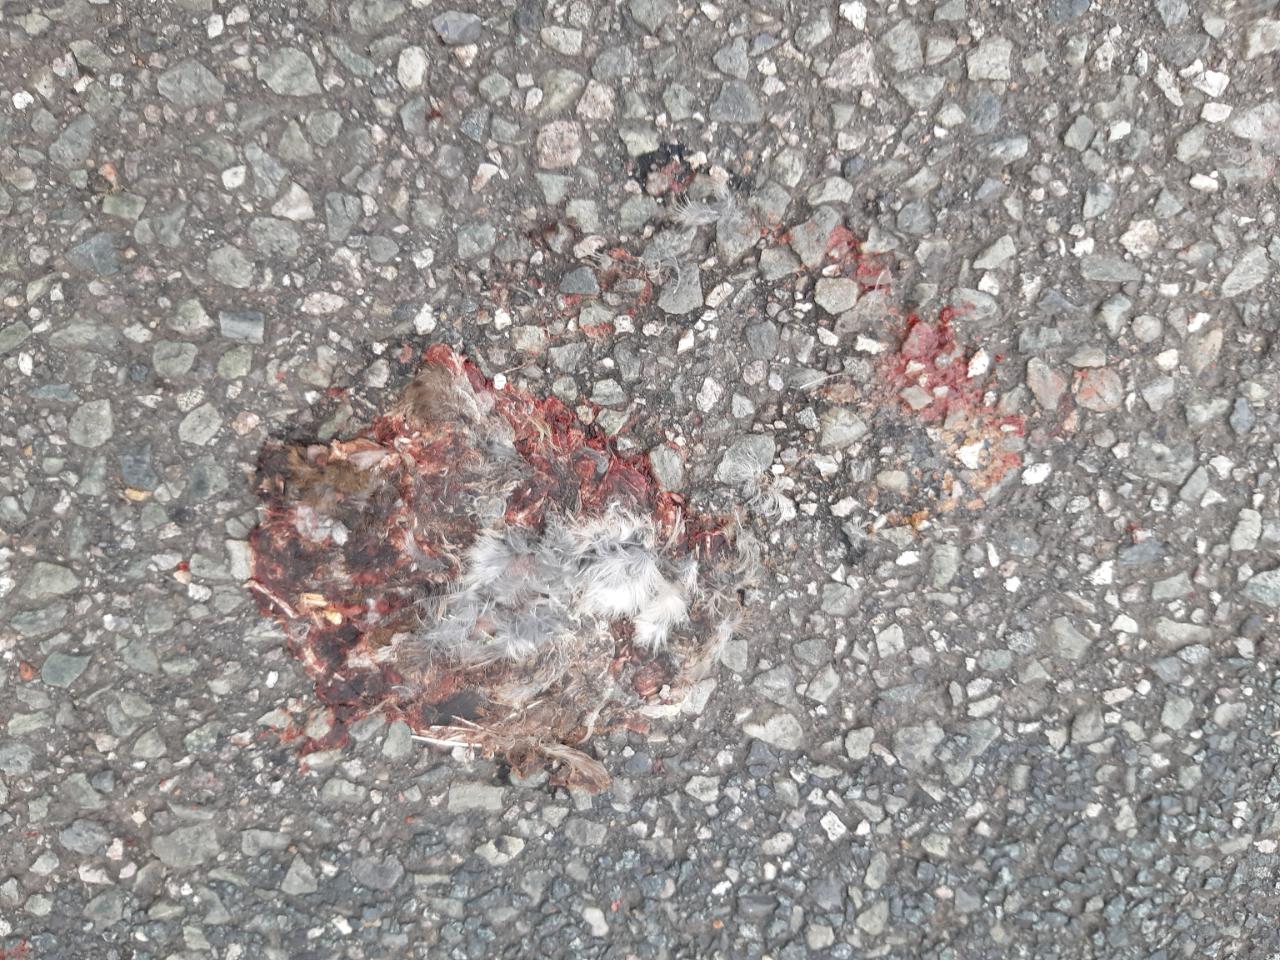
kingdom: Animalia
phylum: Chordata
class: Aves
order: Passeriformes
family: Passeridae
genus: Passer
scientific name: Passer
